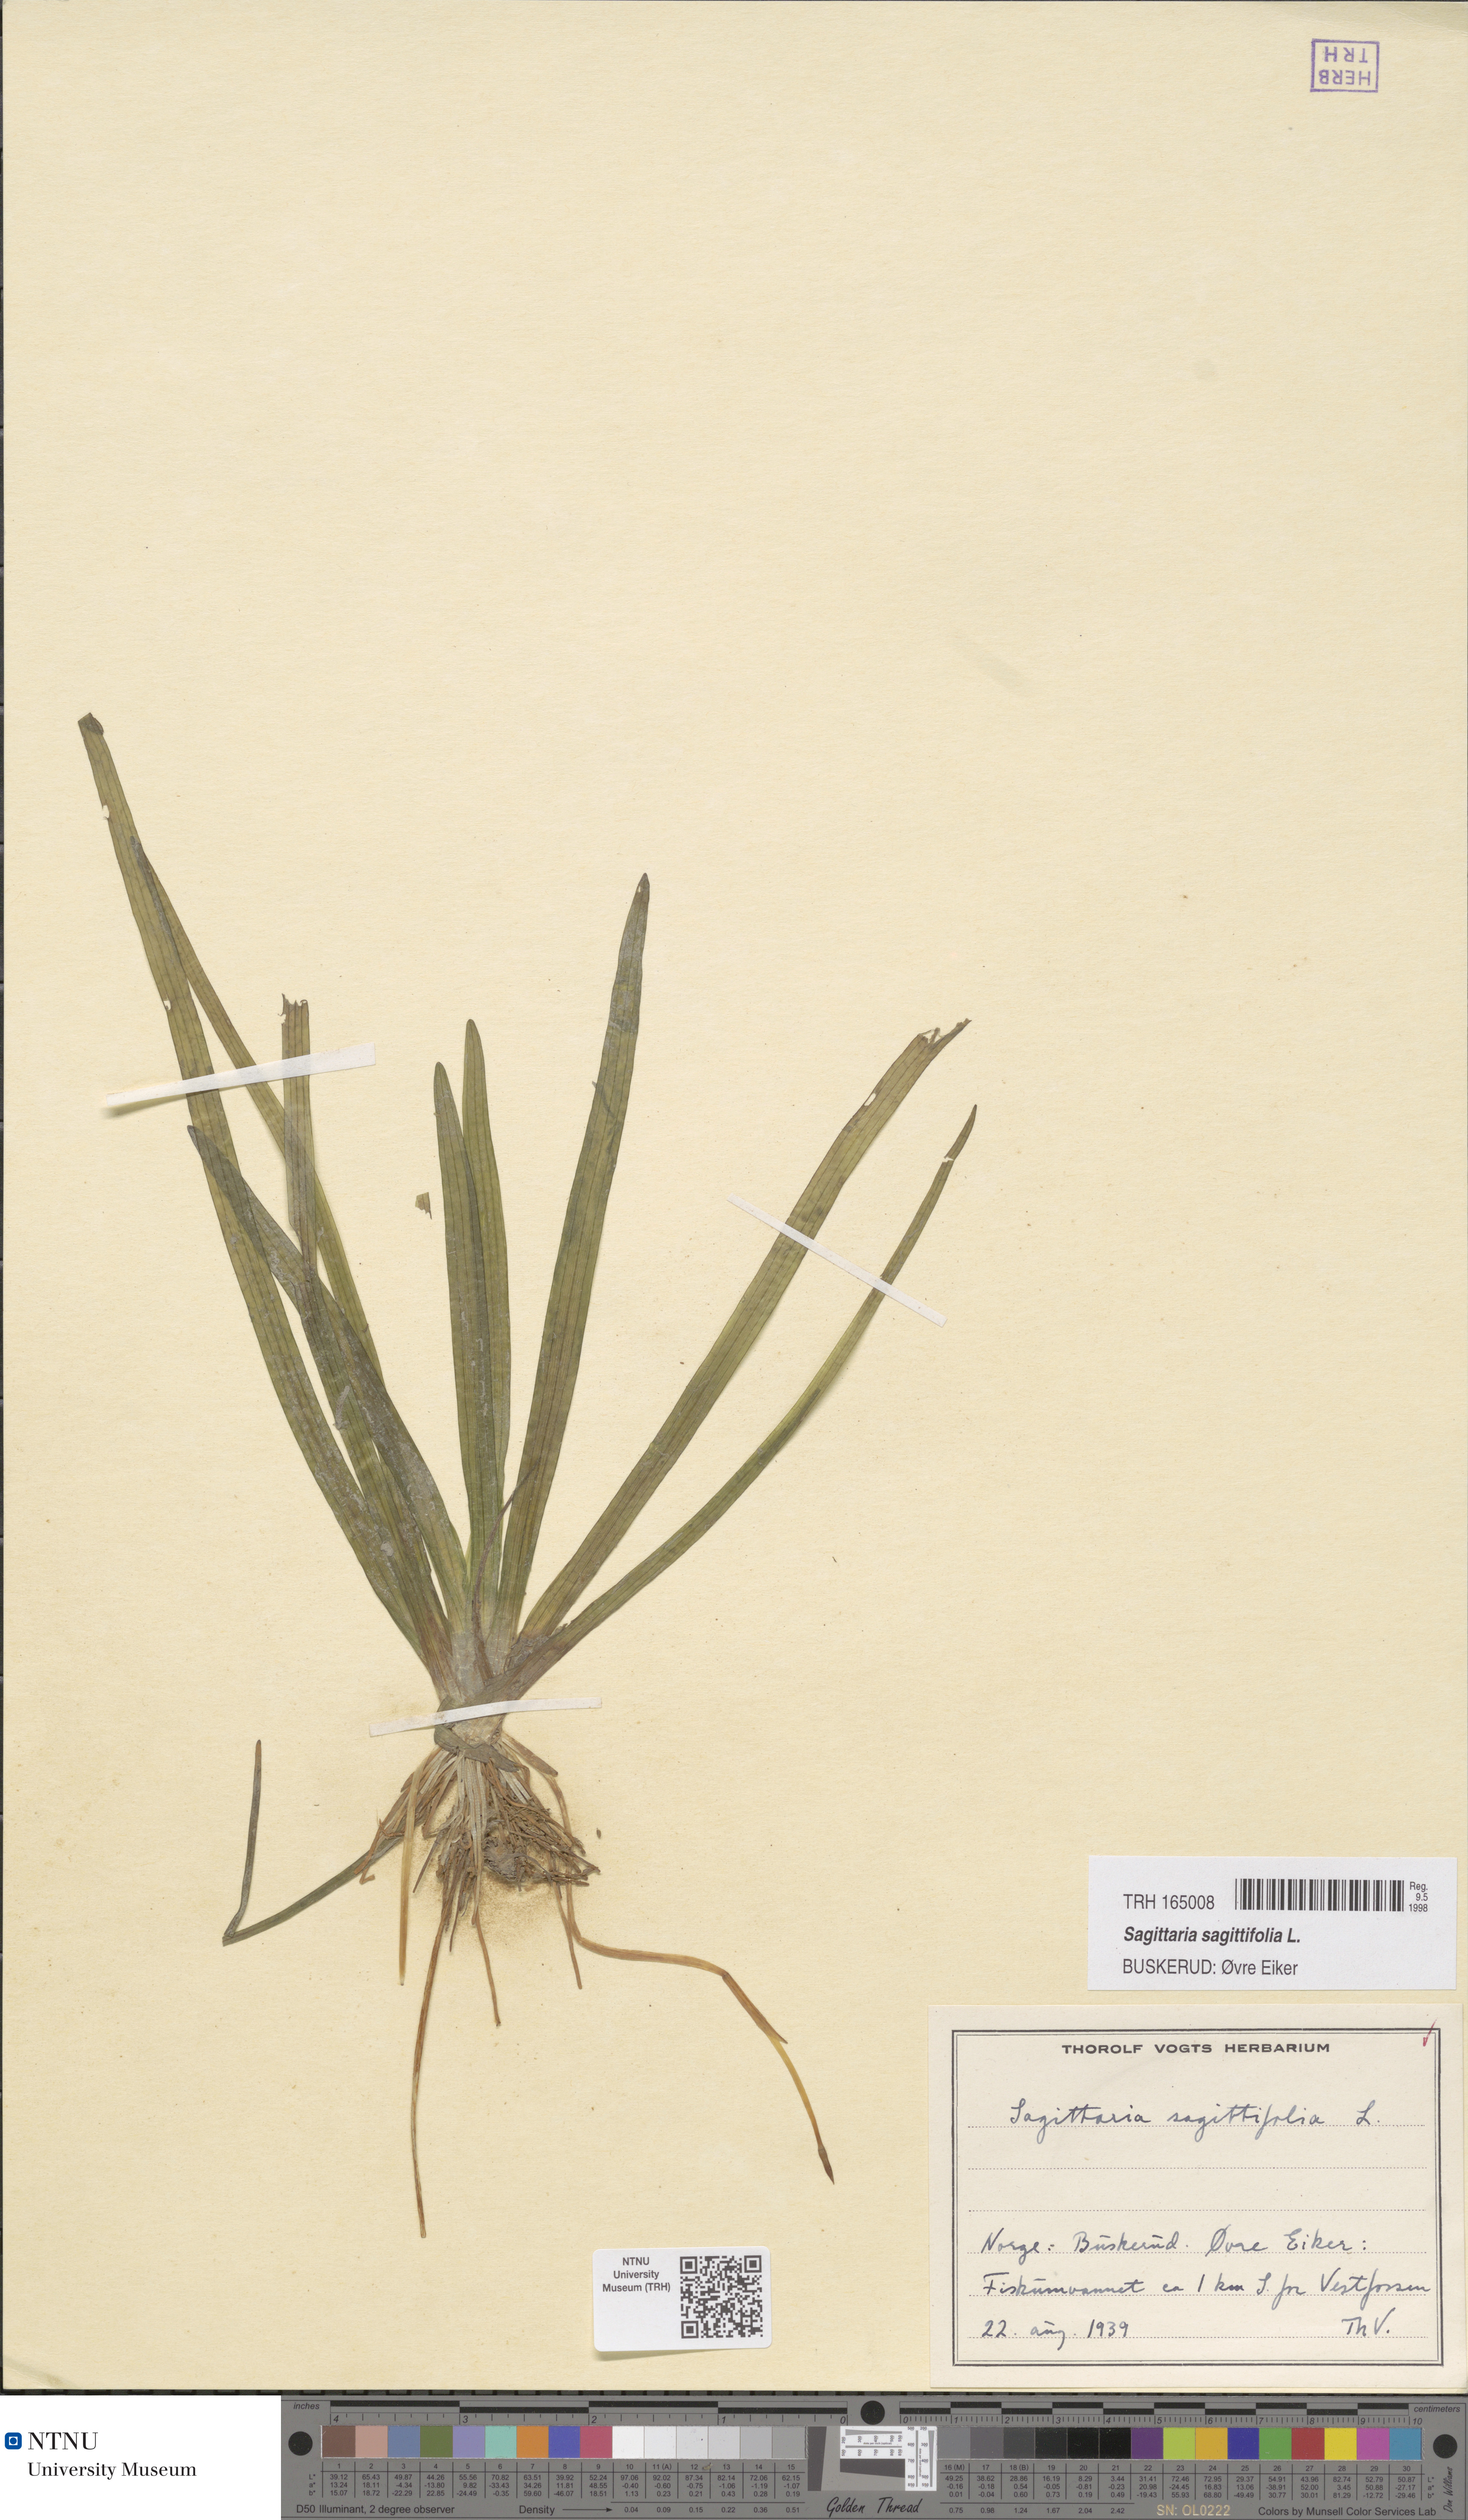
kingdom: Plantae
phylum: Tracheophyta
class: Liliopsida
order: Alismatales
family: Alismataceae
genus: Sagittaria
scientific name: Sagittaria sagittifolia
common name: Arrowhead
